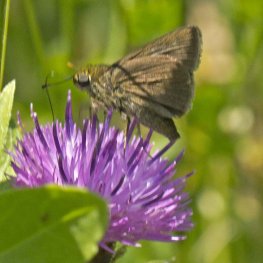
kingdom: Animalia
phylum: Arthropoda
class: Insecta
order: Lepidoptera
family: Hesperiidae
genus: Euphyes
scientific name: Euphyes vestris
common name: Dun Skipper
